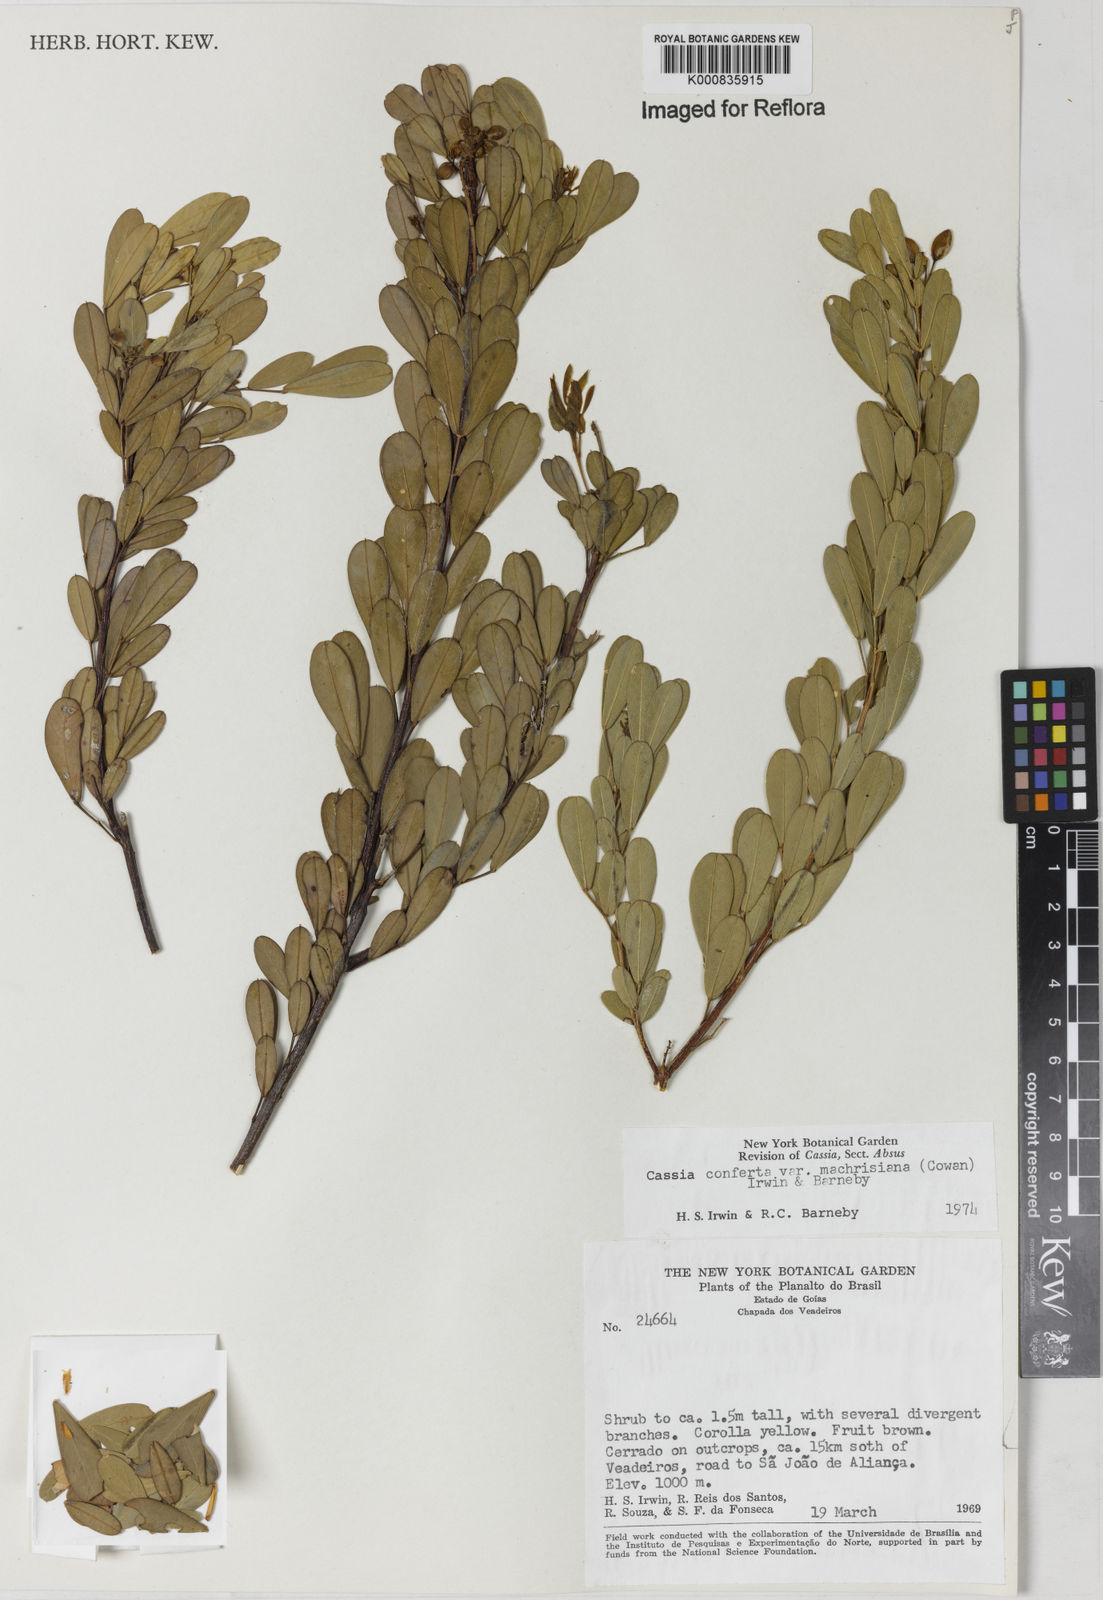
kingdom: Plantae
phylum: Tracheophyta
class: Magnoliopsida
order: Fabales
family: Fabaceae
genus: Chamaecrista
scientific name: Chamaecrista conferta
